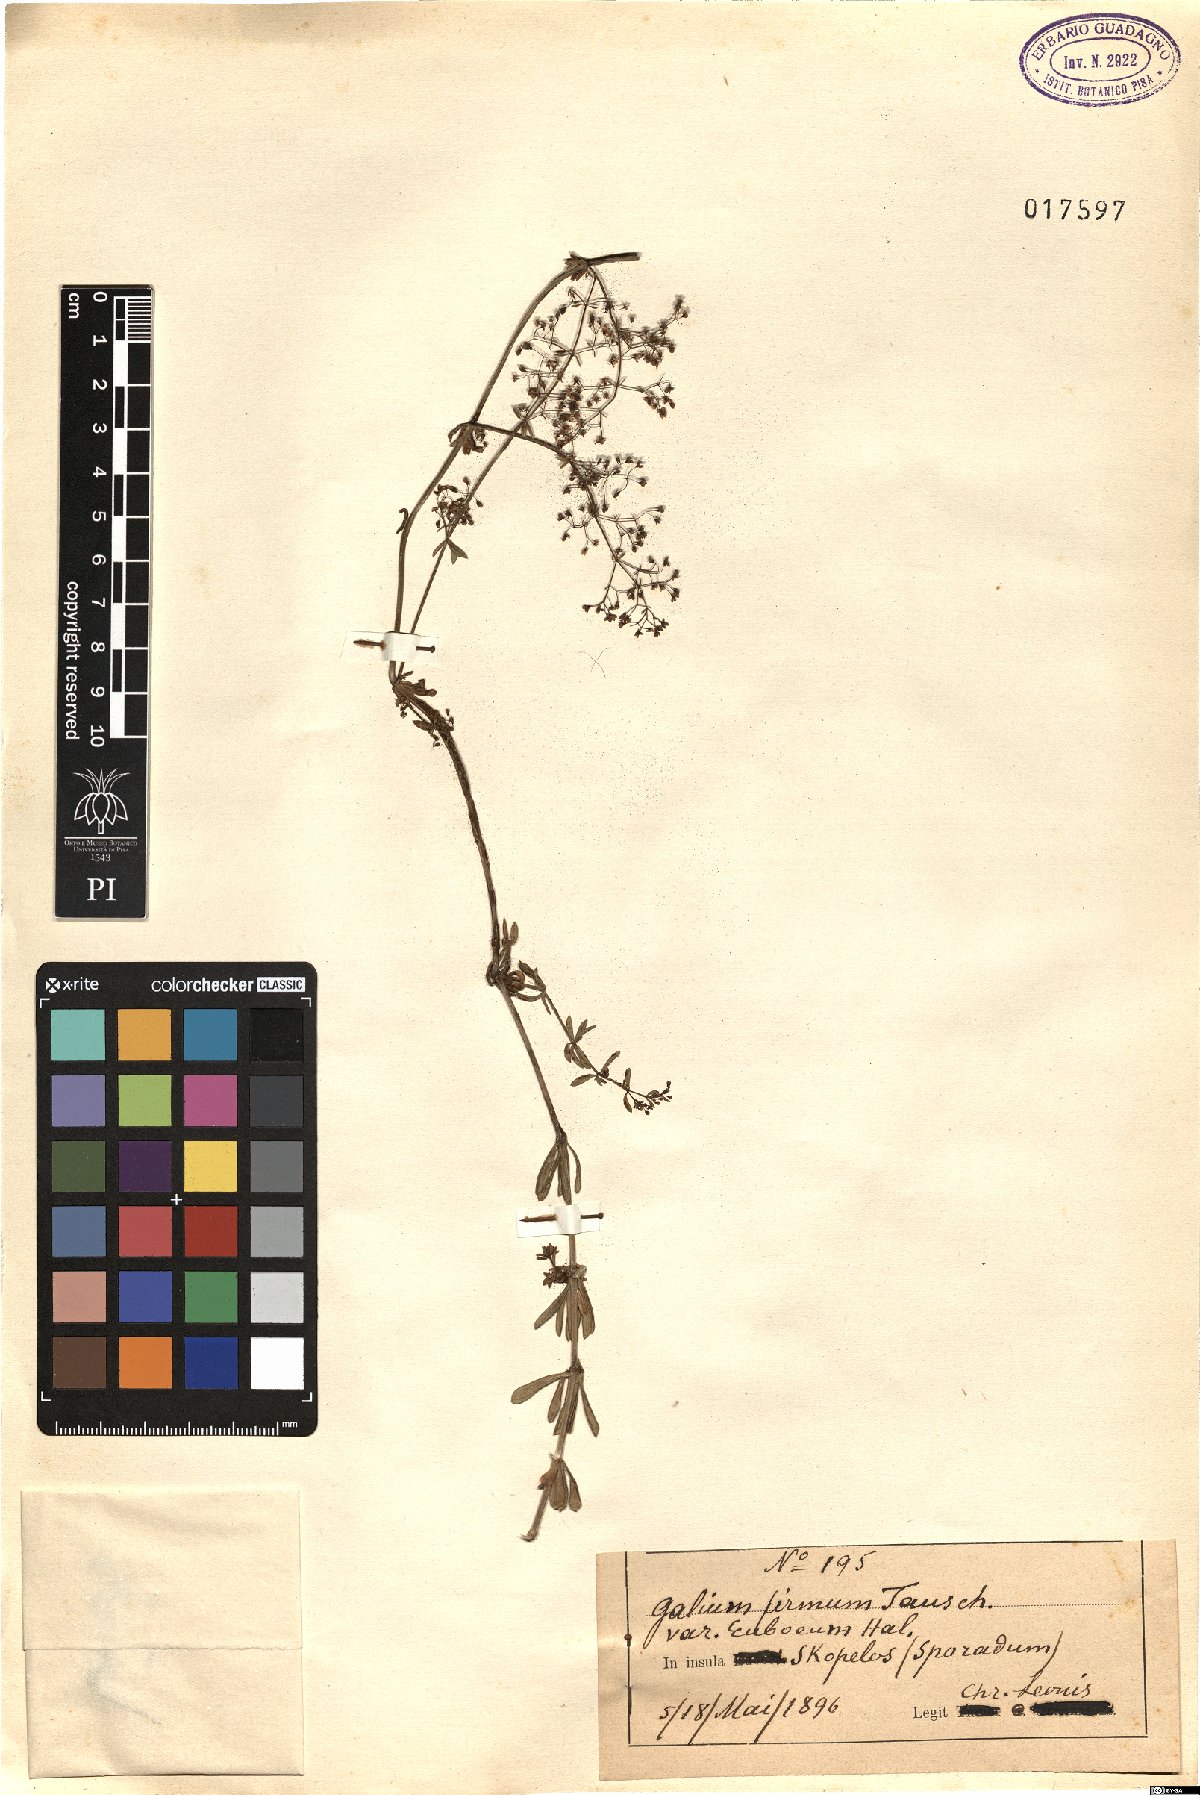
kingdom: Plantae
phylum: Tracheophyta
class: Magnoliopsida
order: Gentianales
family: Rubiaceae
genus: Galium
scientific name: Galium album
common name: White bedstraw
